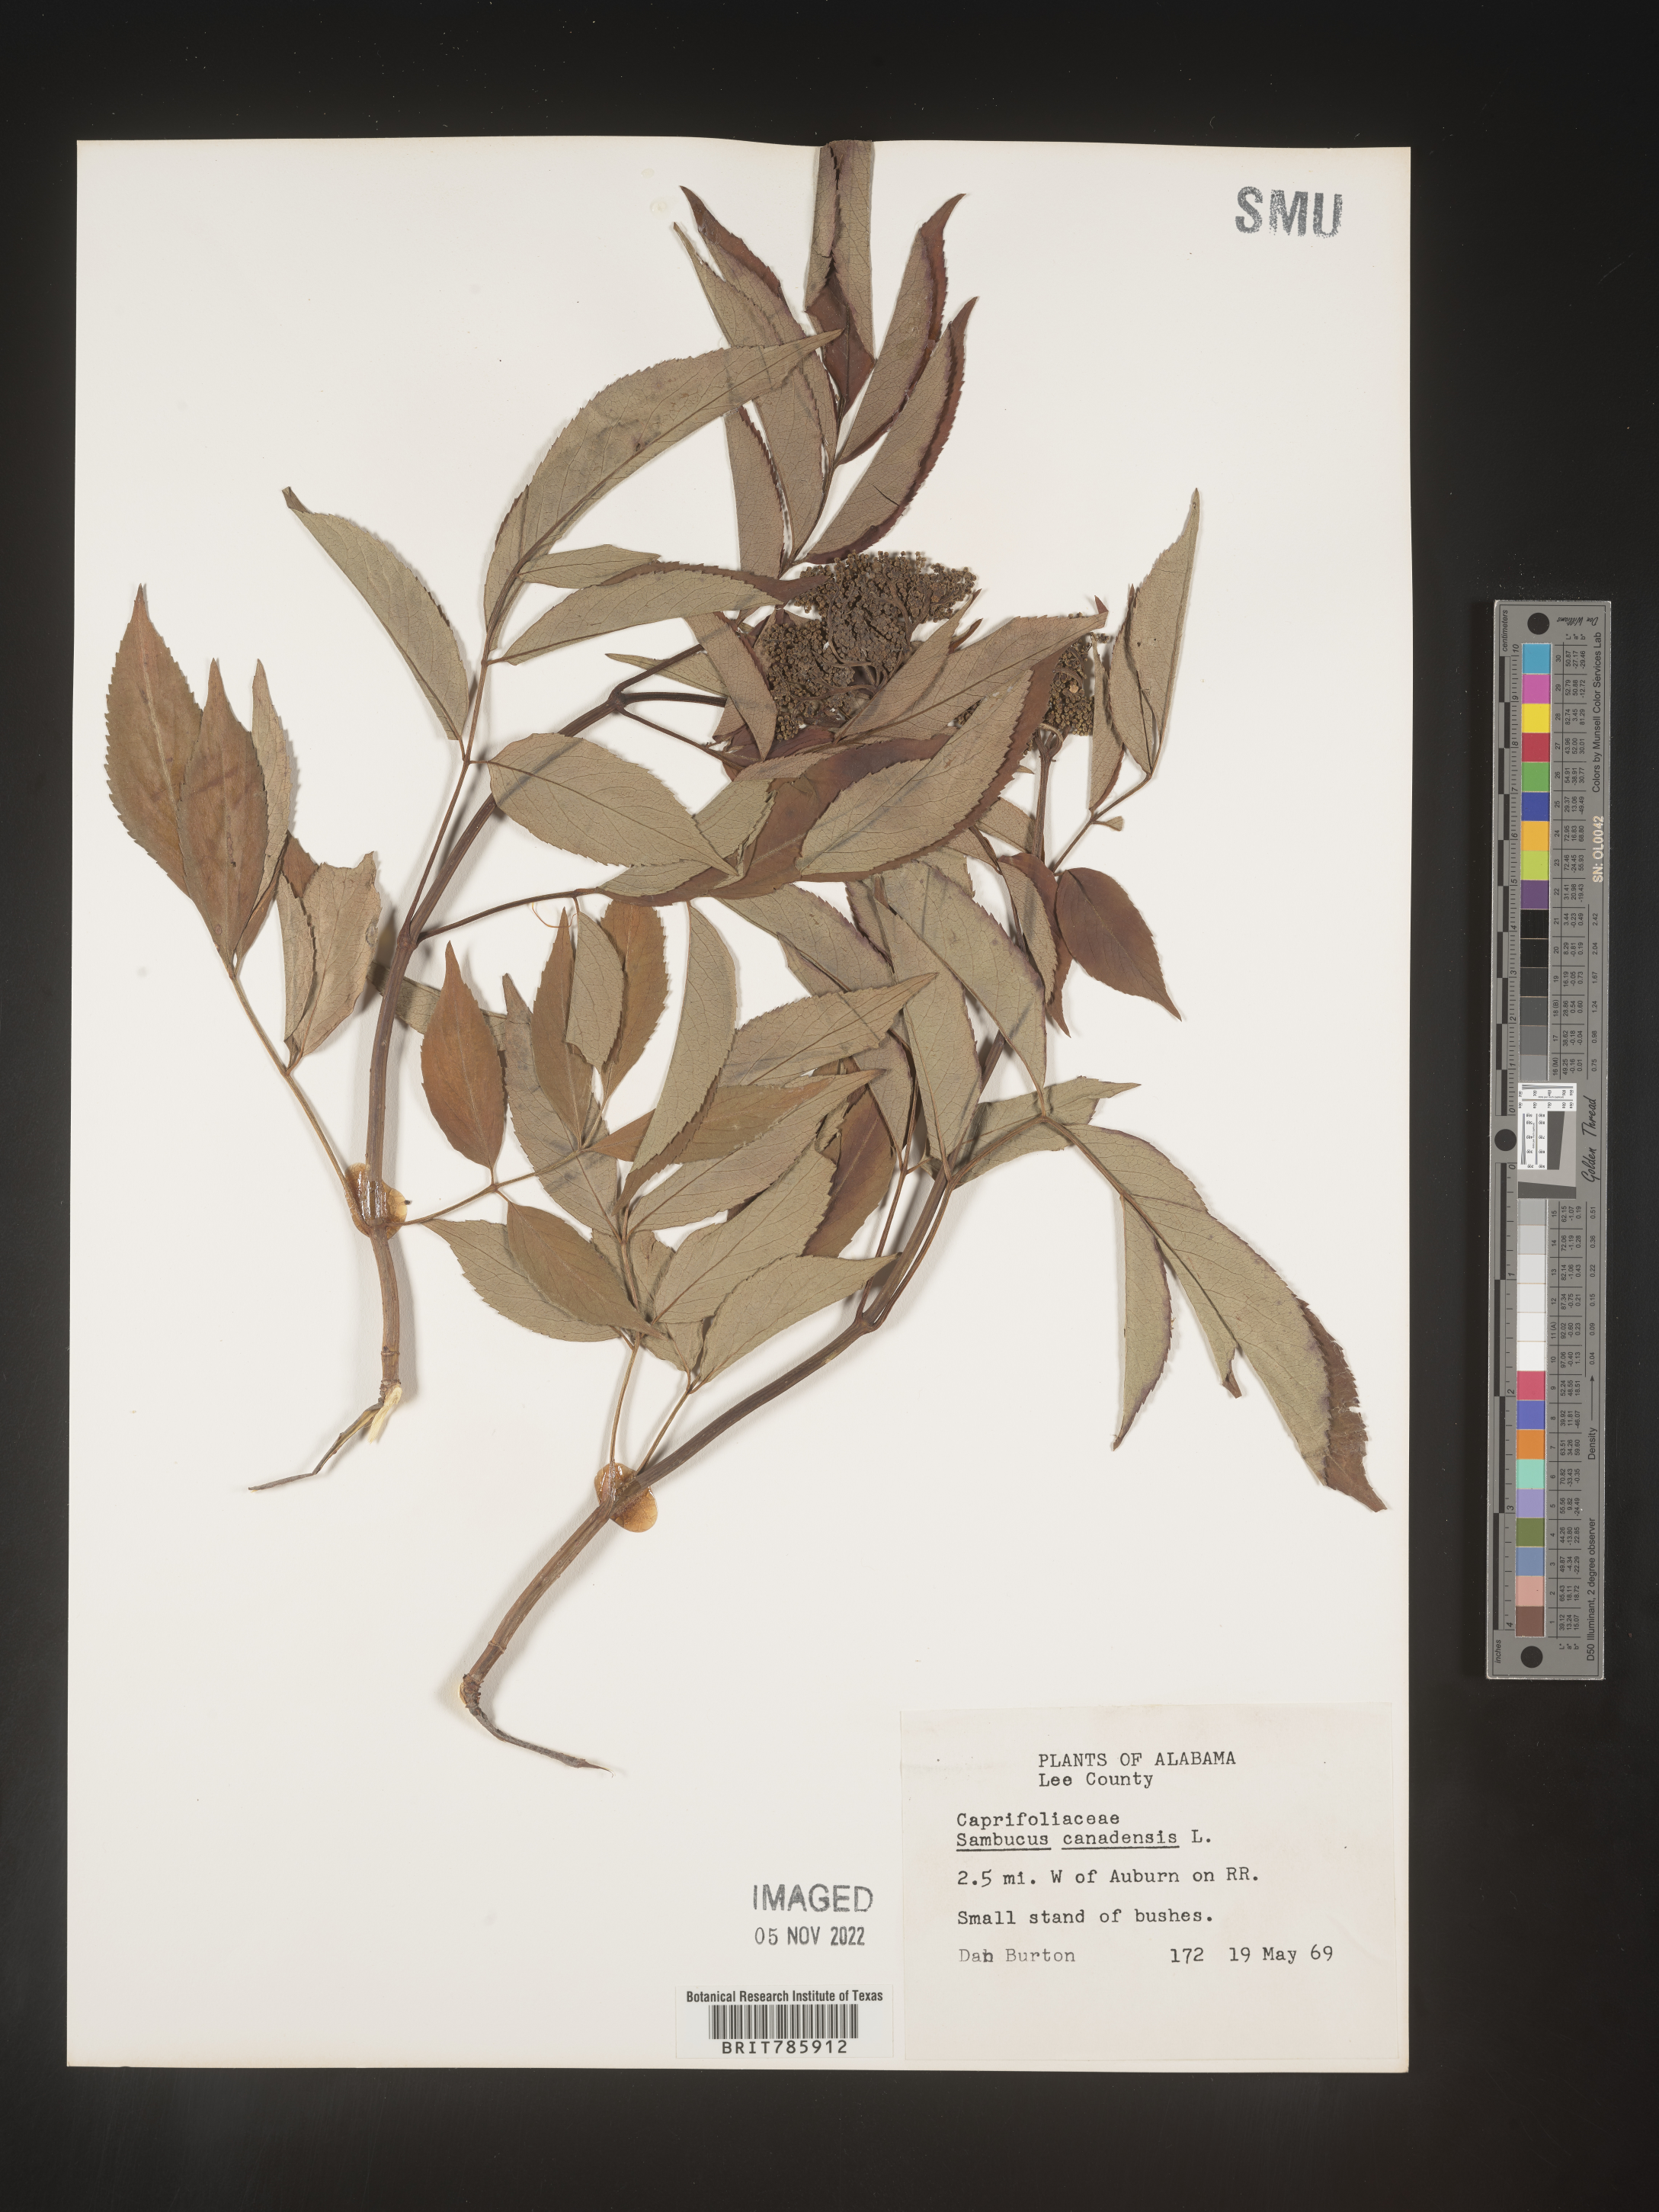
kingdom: Plantae
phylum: Tracheophyta
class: Magnoliopsida
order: Dipsacales
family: Viburnaceae
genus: Sambucus
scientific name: Sambucus nigra
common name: Elder
